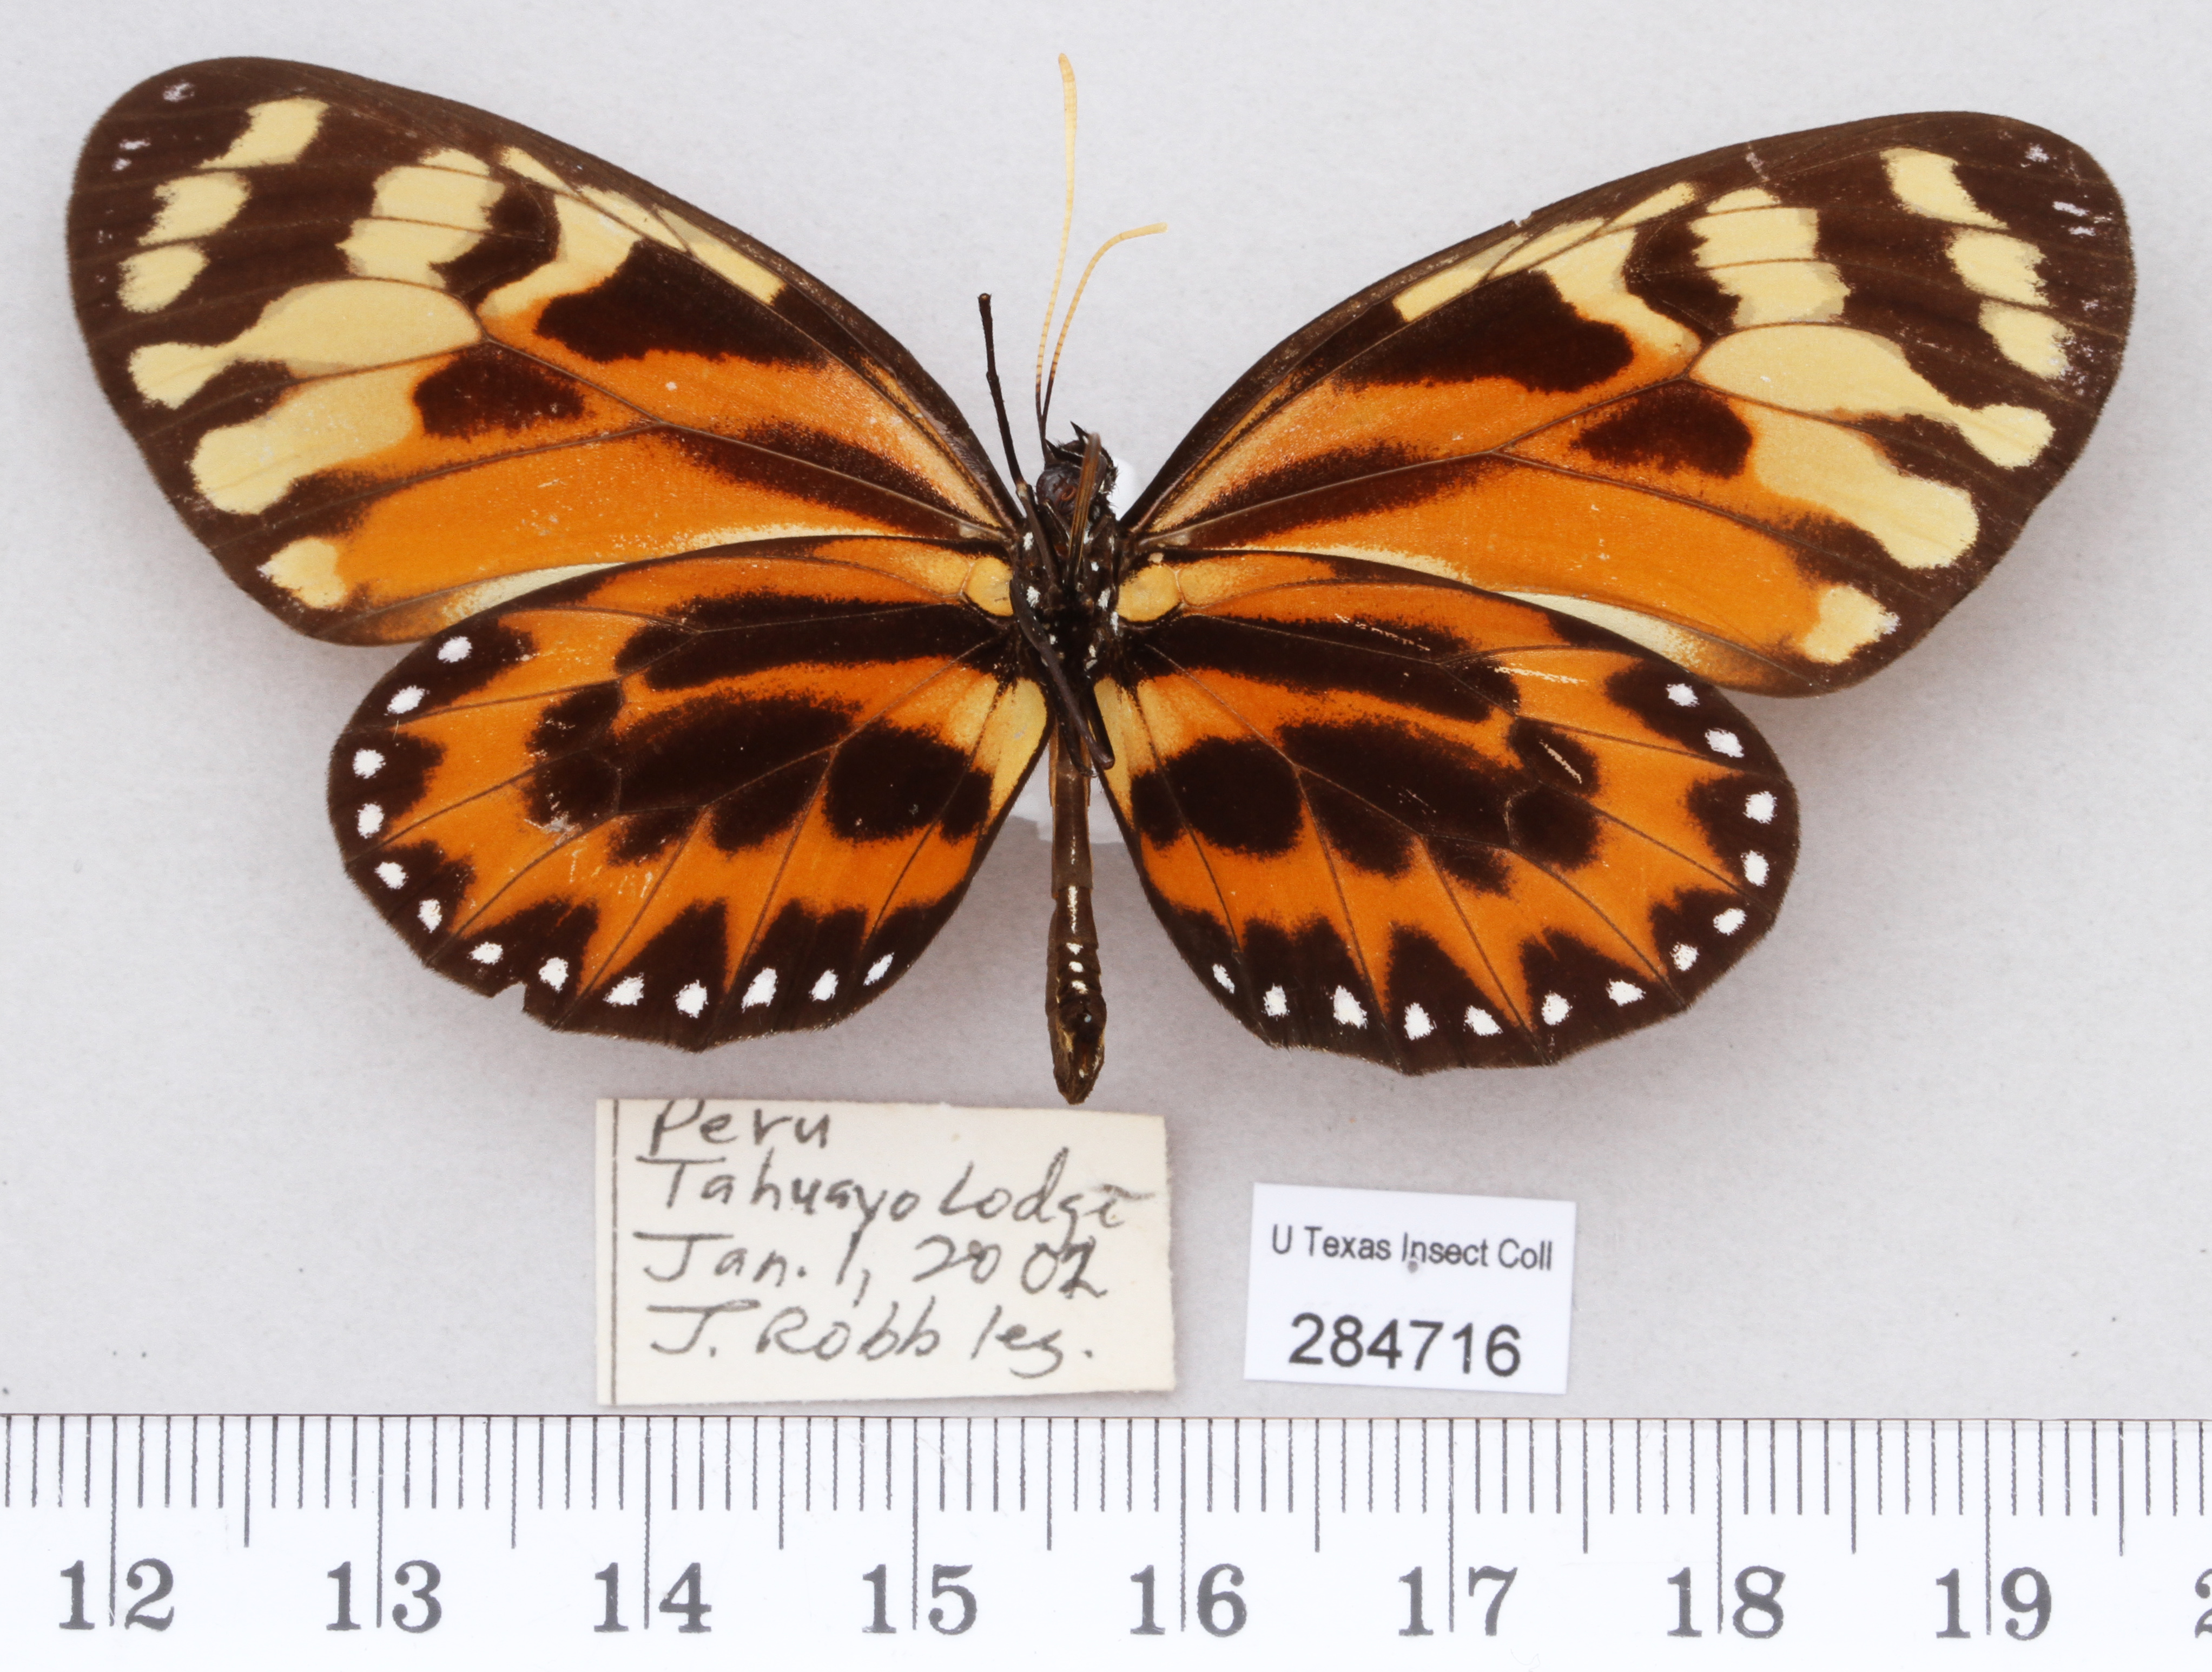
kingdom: Animalia
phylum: Arthropoda
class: Insecta
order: Lepidoptera
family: Nymphalidae
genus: Lycorea
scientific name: Lycorea pasinuntia
